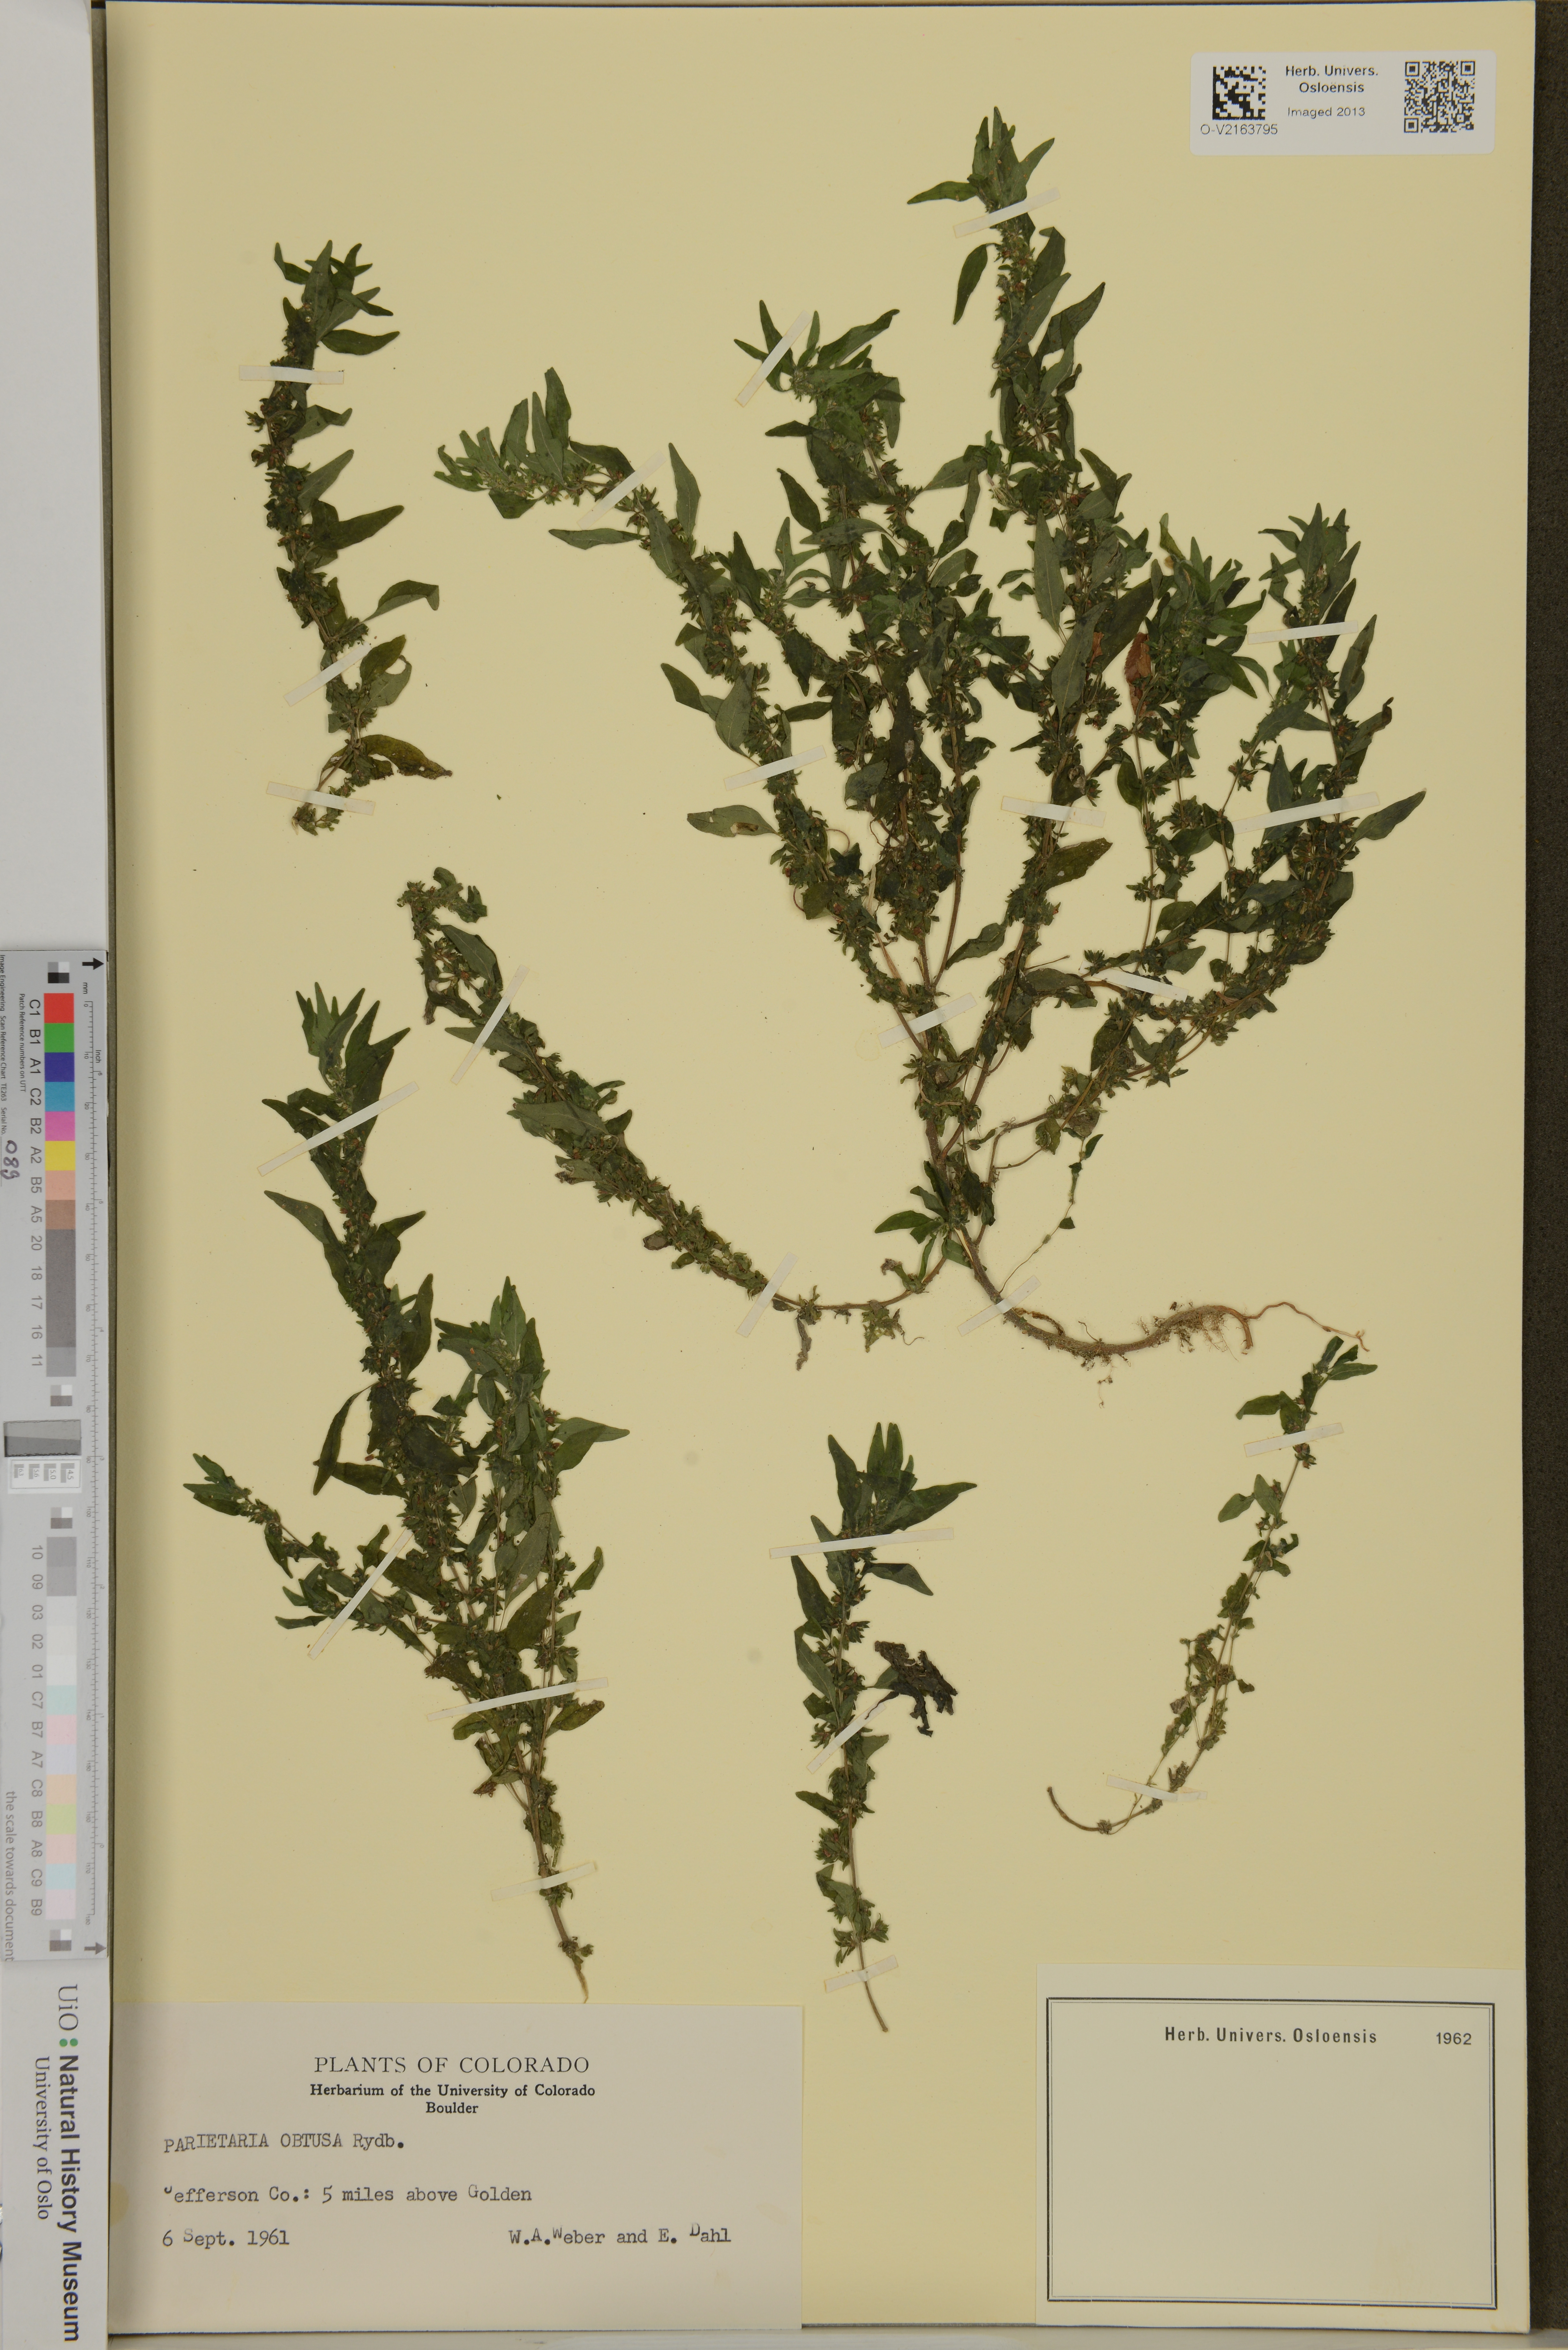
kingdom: Plantae
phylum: Tracheophyta
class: Magnoliopsida
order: Rosales
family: Urticaceae
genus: Parietaria
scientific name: Parietaria
